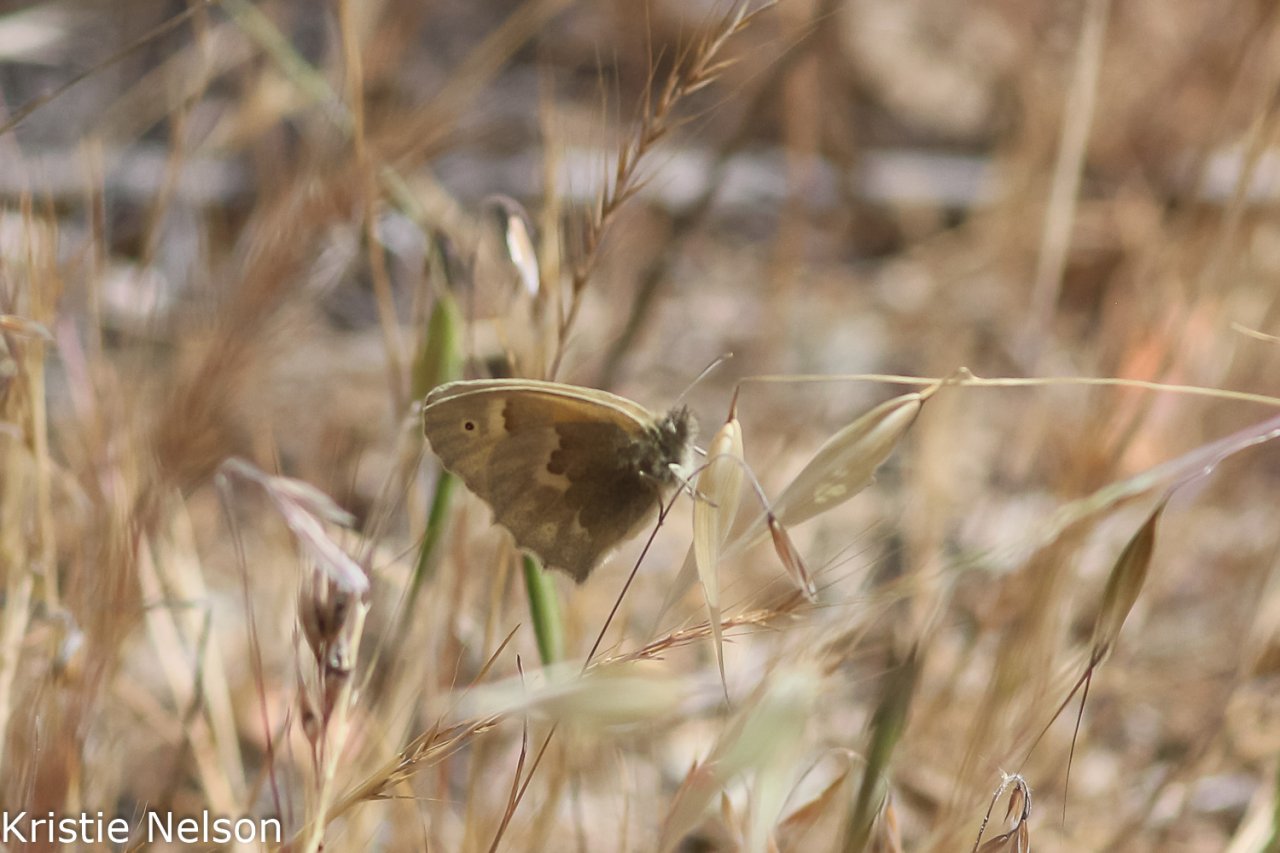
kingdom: Animalia
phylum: Arthropoda
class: Insecta
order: Lepidoptera
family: Nymphalidae
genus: Coenonympha
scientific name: Coenonympha tullia
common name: Large Heath
